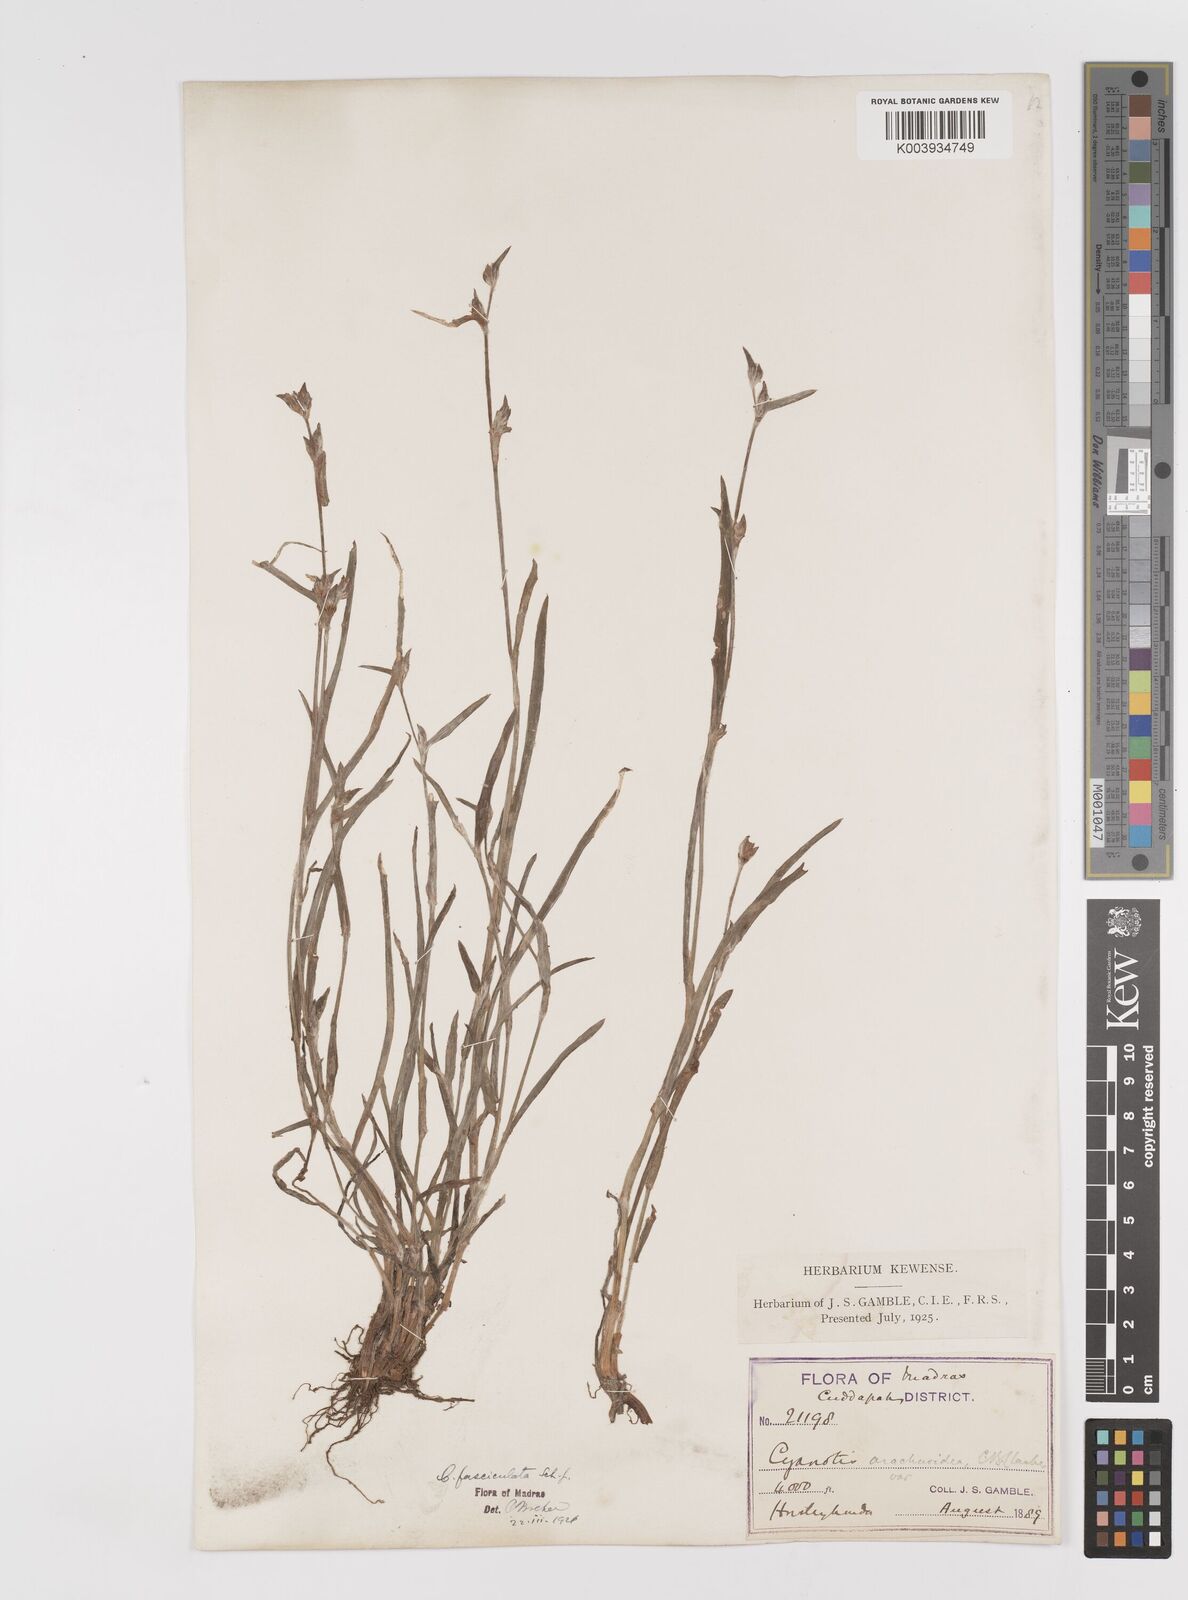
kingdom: Plantae
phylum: Tracheophyta
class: Liliopsida
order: Commelinales
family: Commelinaceae
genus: Cyanotis
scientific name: Cyanotis fasciculata
